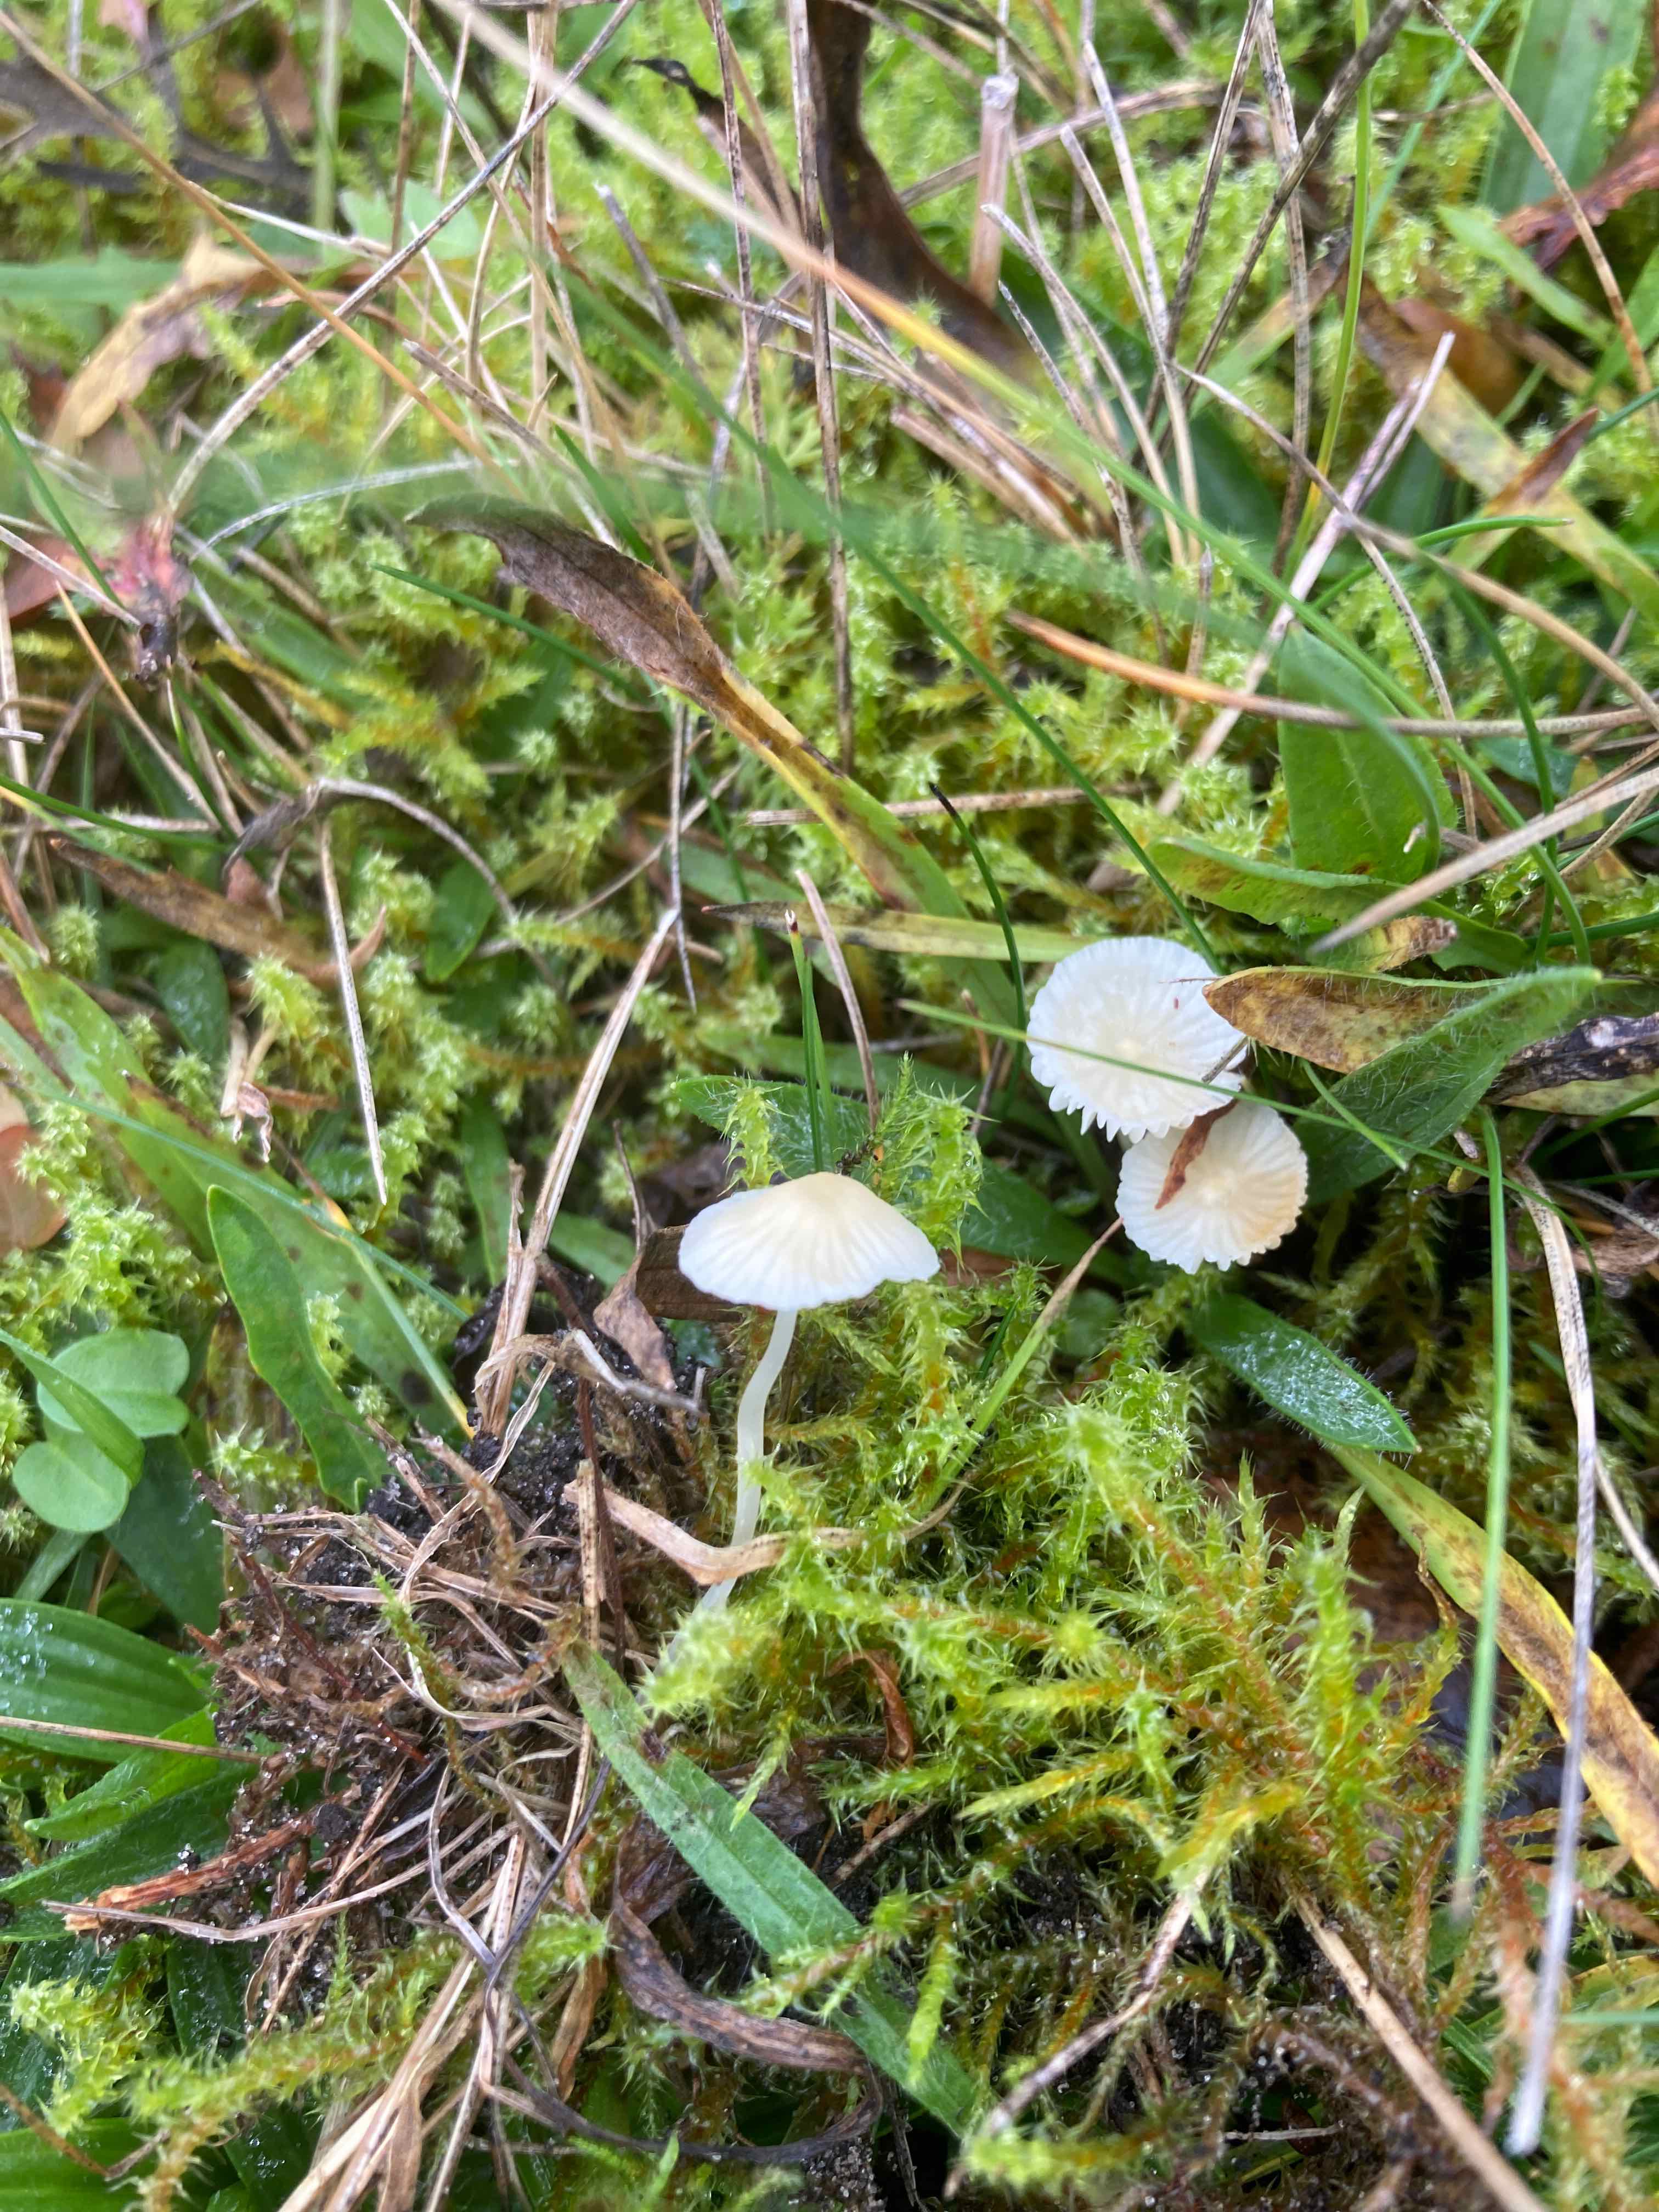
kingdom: Fungi
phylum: Basidiomycota
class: Agaricomycetes
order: Agaricales
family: Mycenaceae
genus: Atheniella
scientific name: Atheniella flavoalba
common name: gulhvid huesvamp
